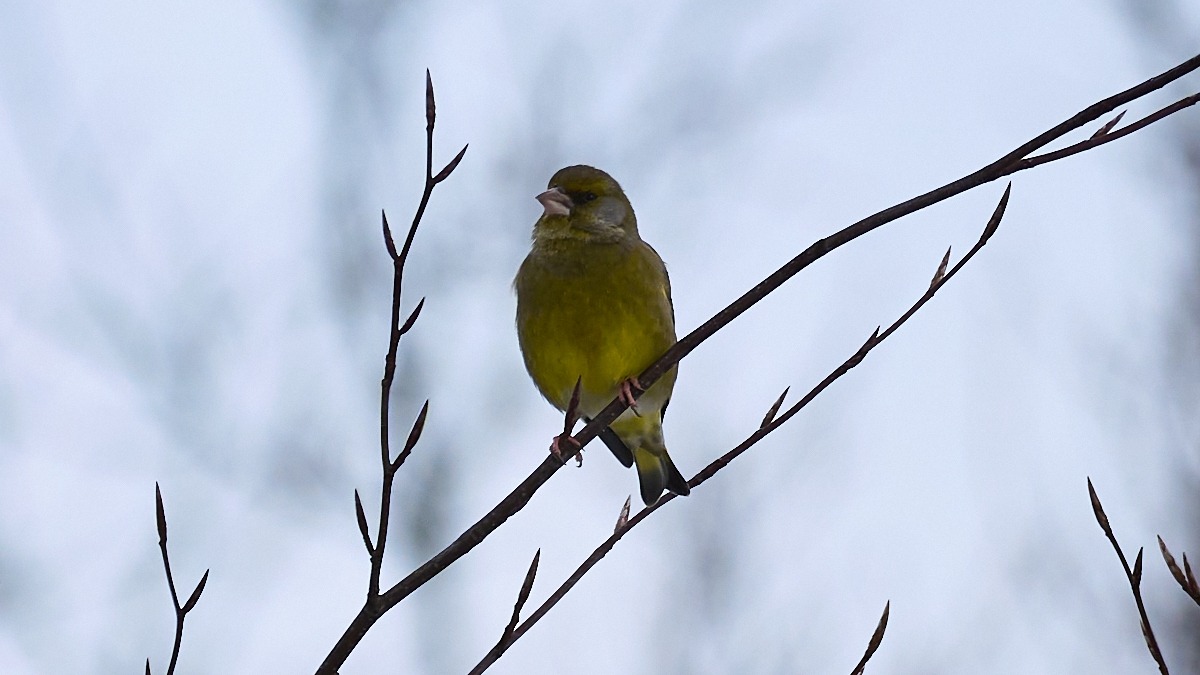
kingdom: Plantae
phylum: Tracheophyta
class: Liliopsida
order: Poales
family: Poaceae
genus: Chloris
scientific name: Chloris chloris
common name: Grønirisk
